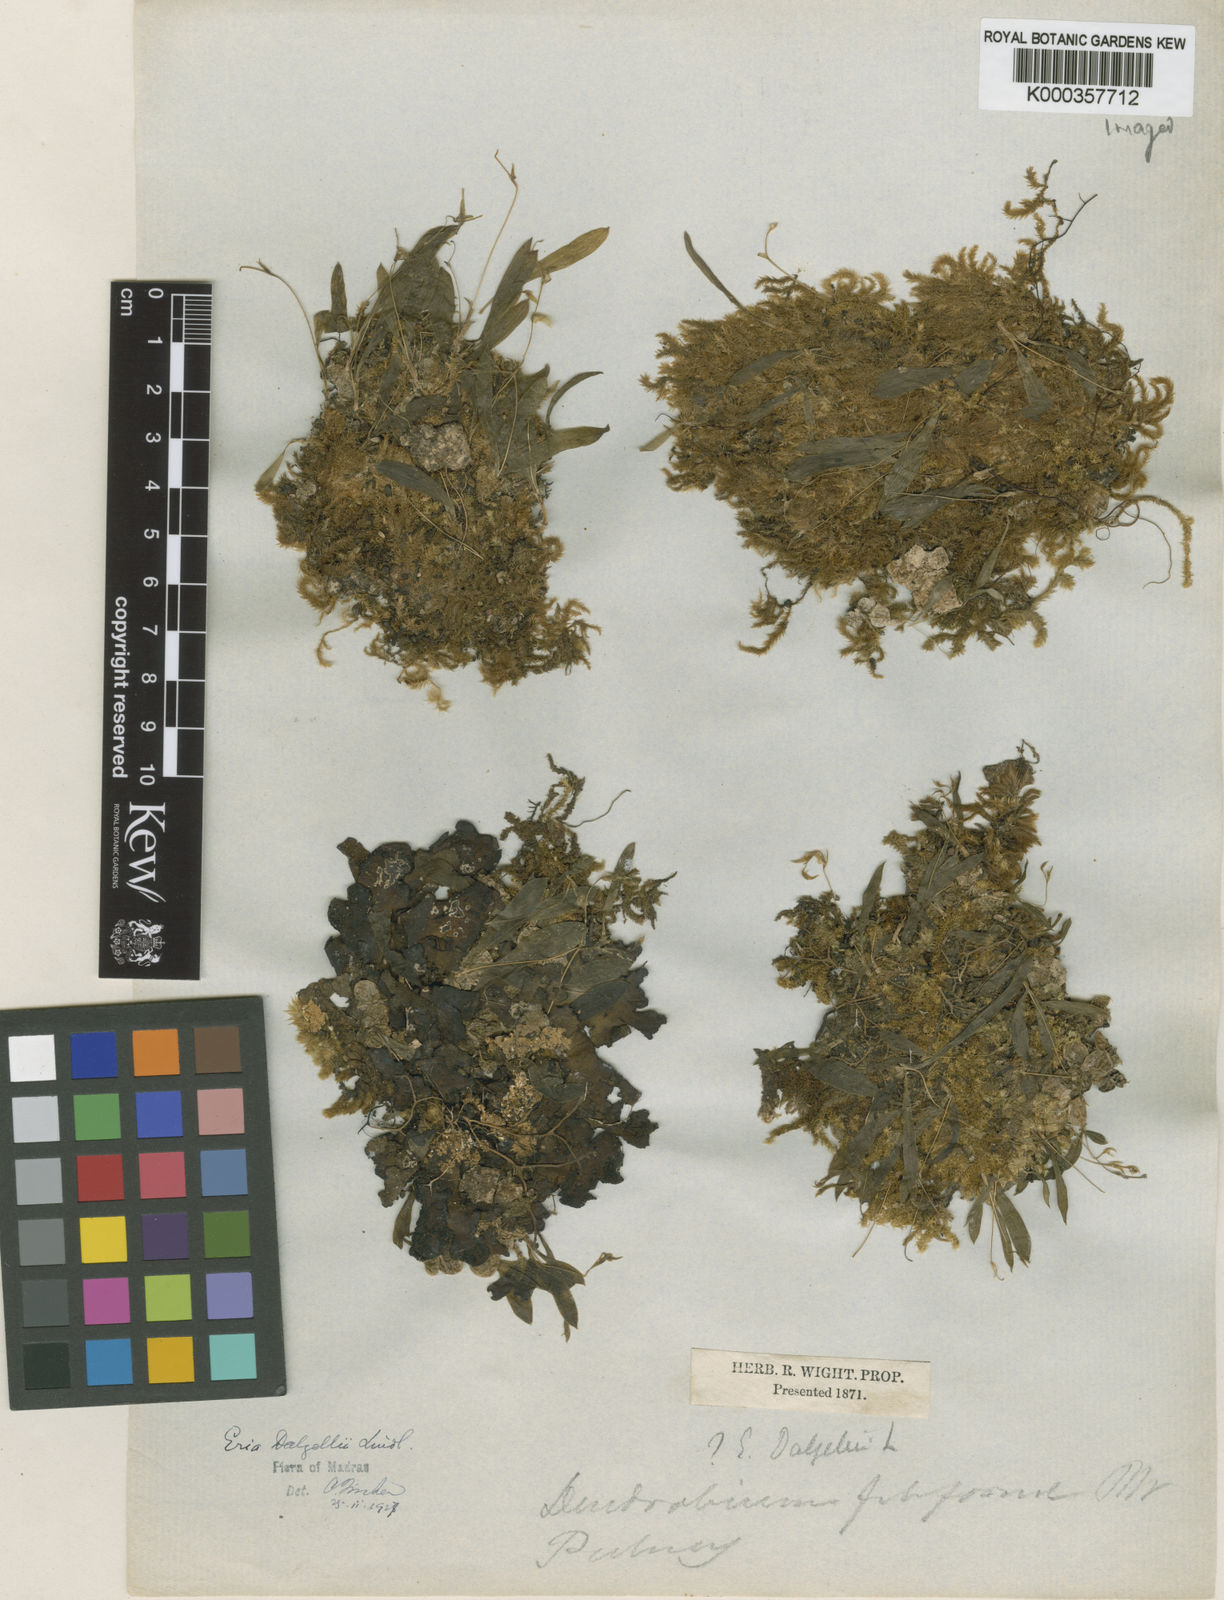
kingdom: Plantae
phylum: Tracheophyta
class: Liliopsida
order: Asparagales
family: Orchidaceae
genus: Porpax
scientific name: Porpax filiformis
